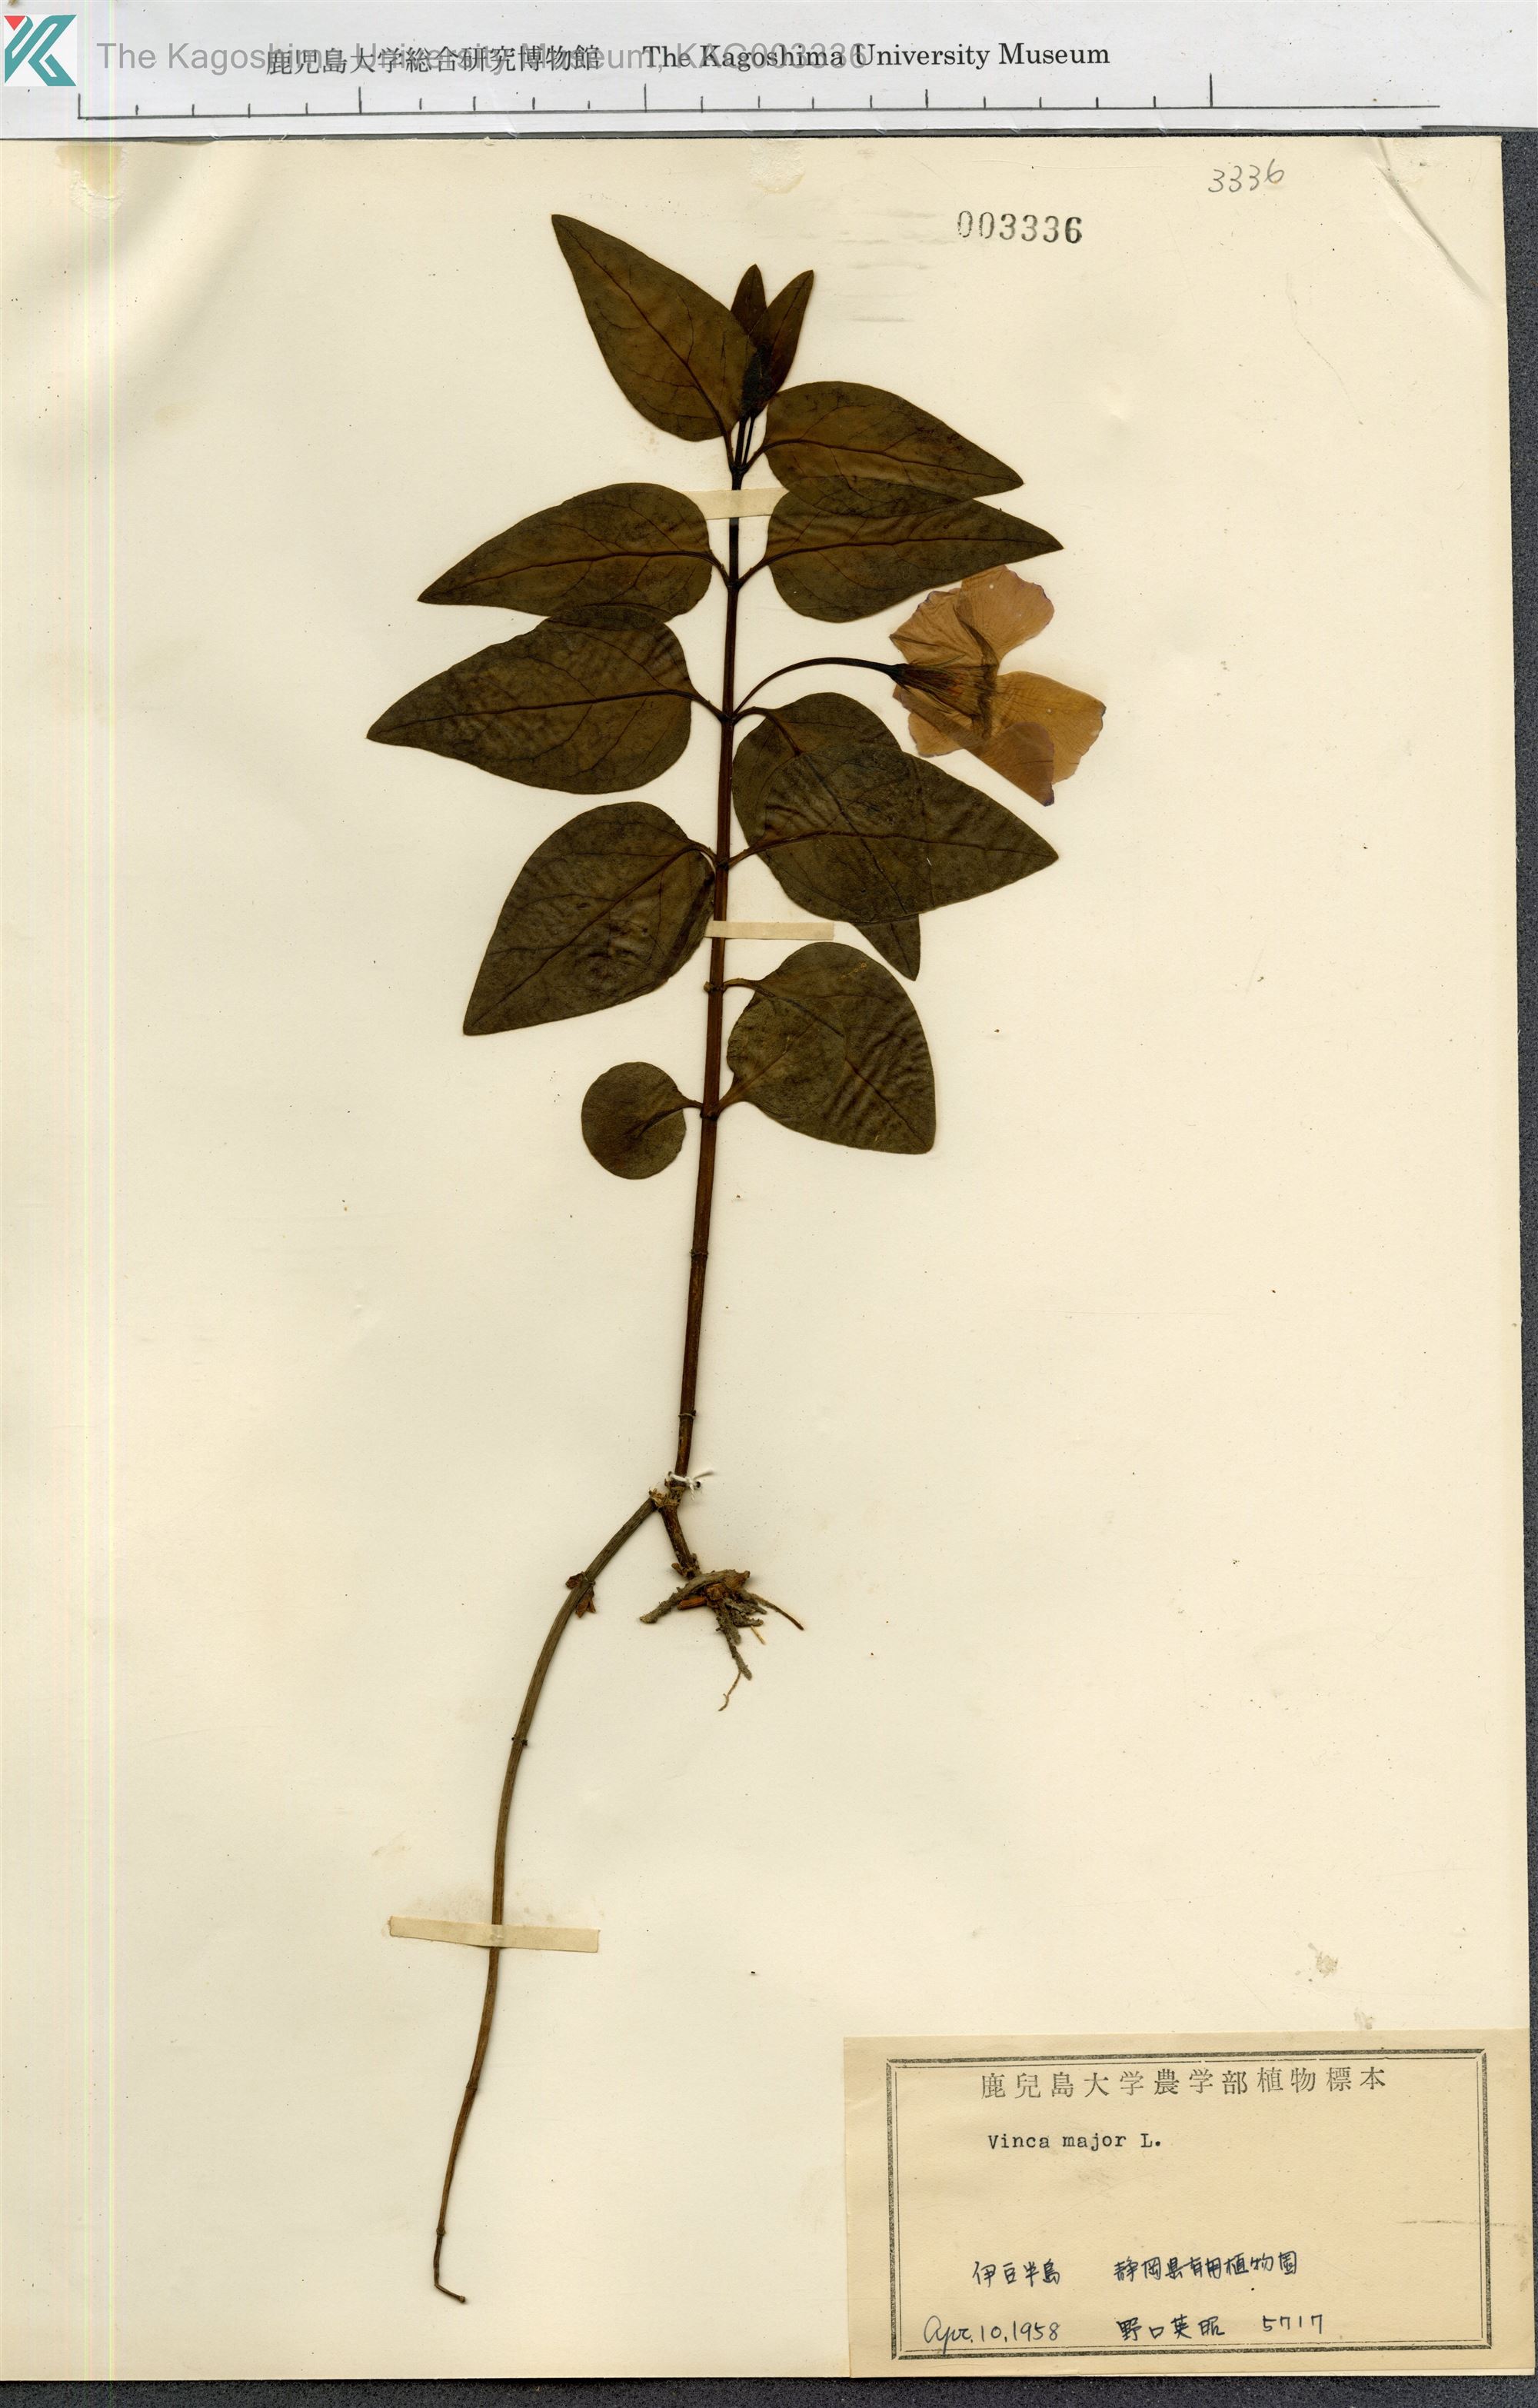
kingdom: Plantae
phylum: Tracheophyta
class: Magnoliopsida
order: Gentianales
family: Apocynaceae
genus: Vinca
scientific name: Vinca major
